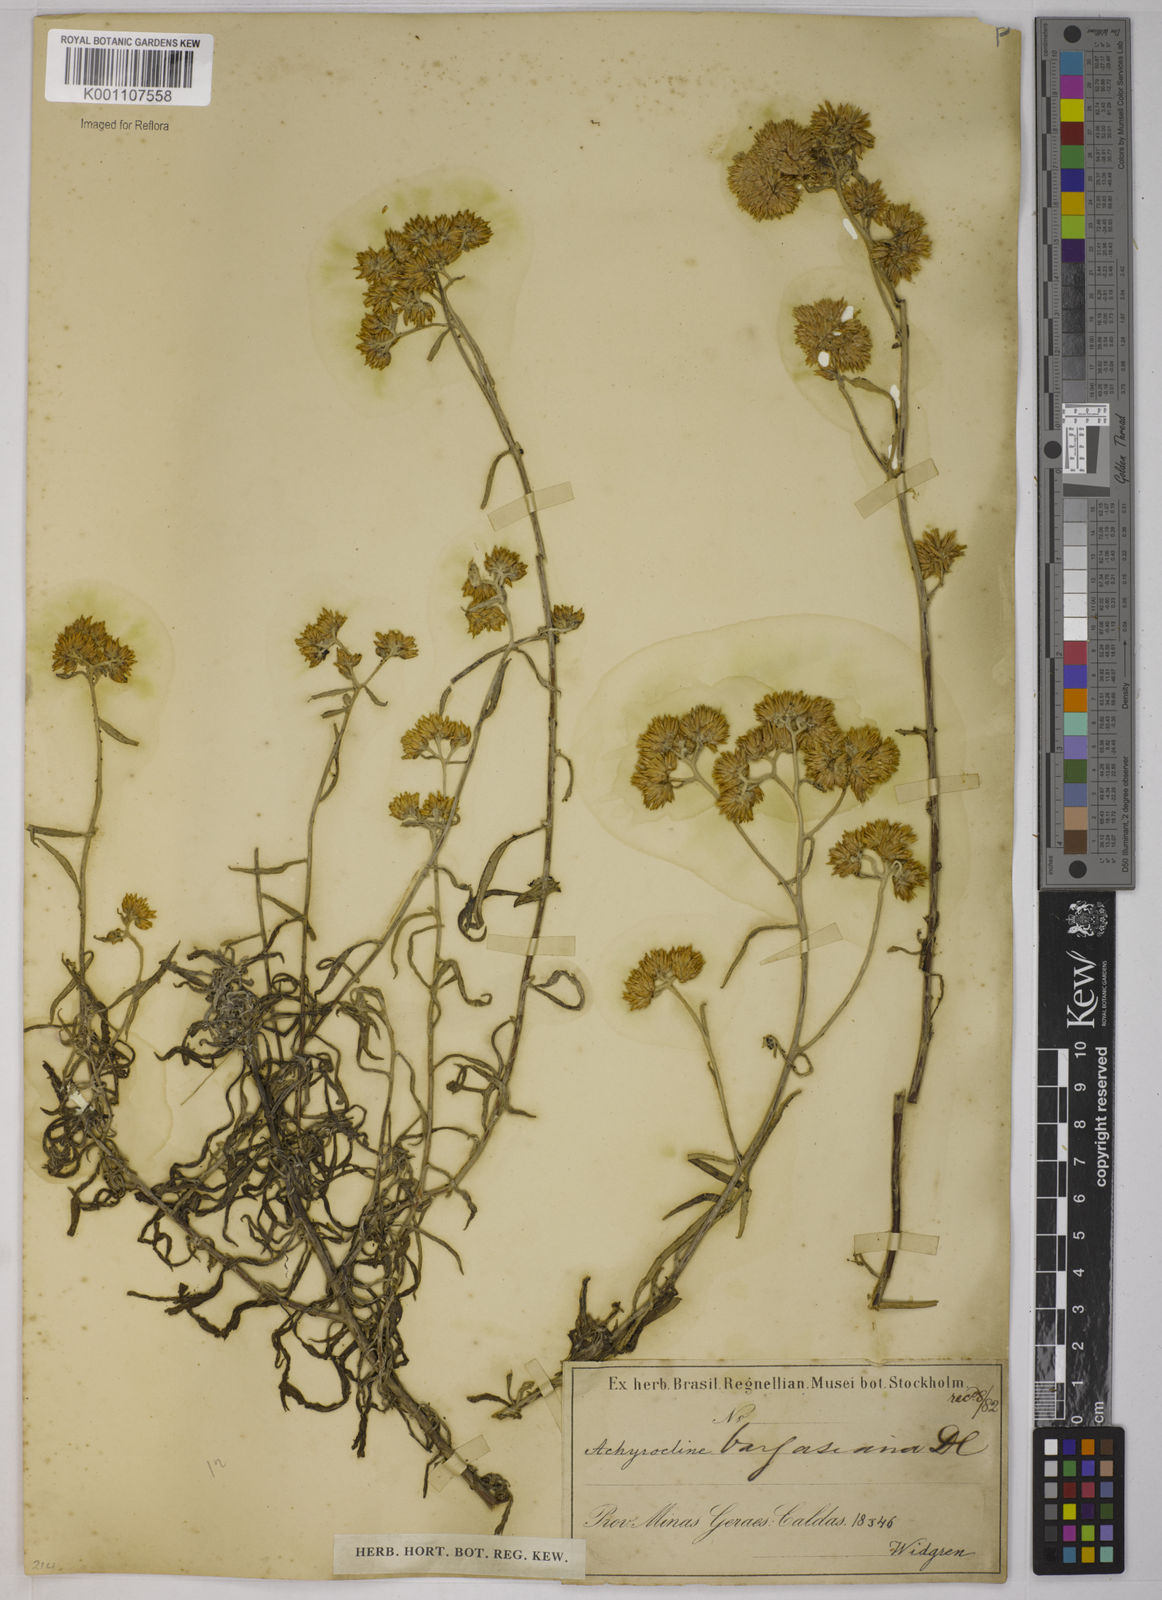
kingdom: Plantae
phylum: Tracheophyta
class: Magnoliopsida
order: Asterales
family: Asteraceae
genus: Achyrocline
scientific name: Achyrocline vargasiana
